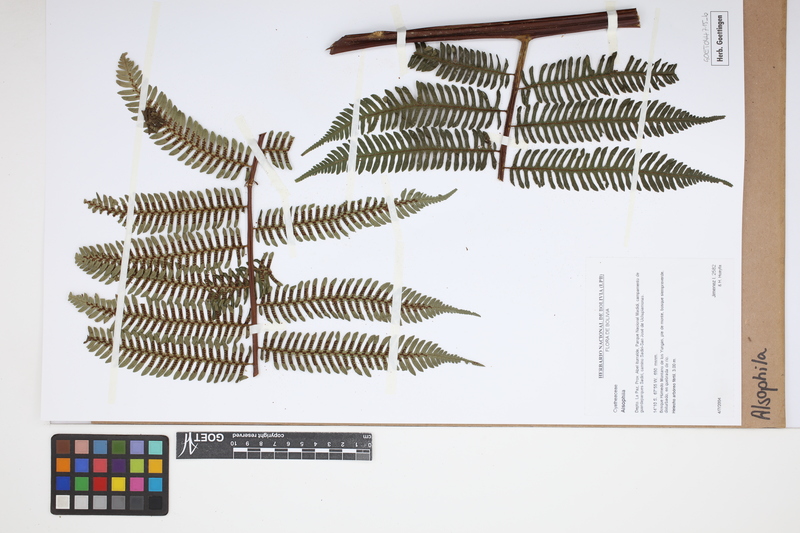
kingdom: Plantae
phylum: Tracheophyta
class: Polypodiopsida
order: Cyatheales
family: Cyatheaceae
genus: Alsophila
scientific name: Alsophila
